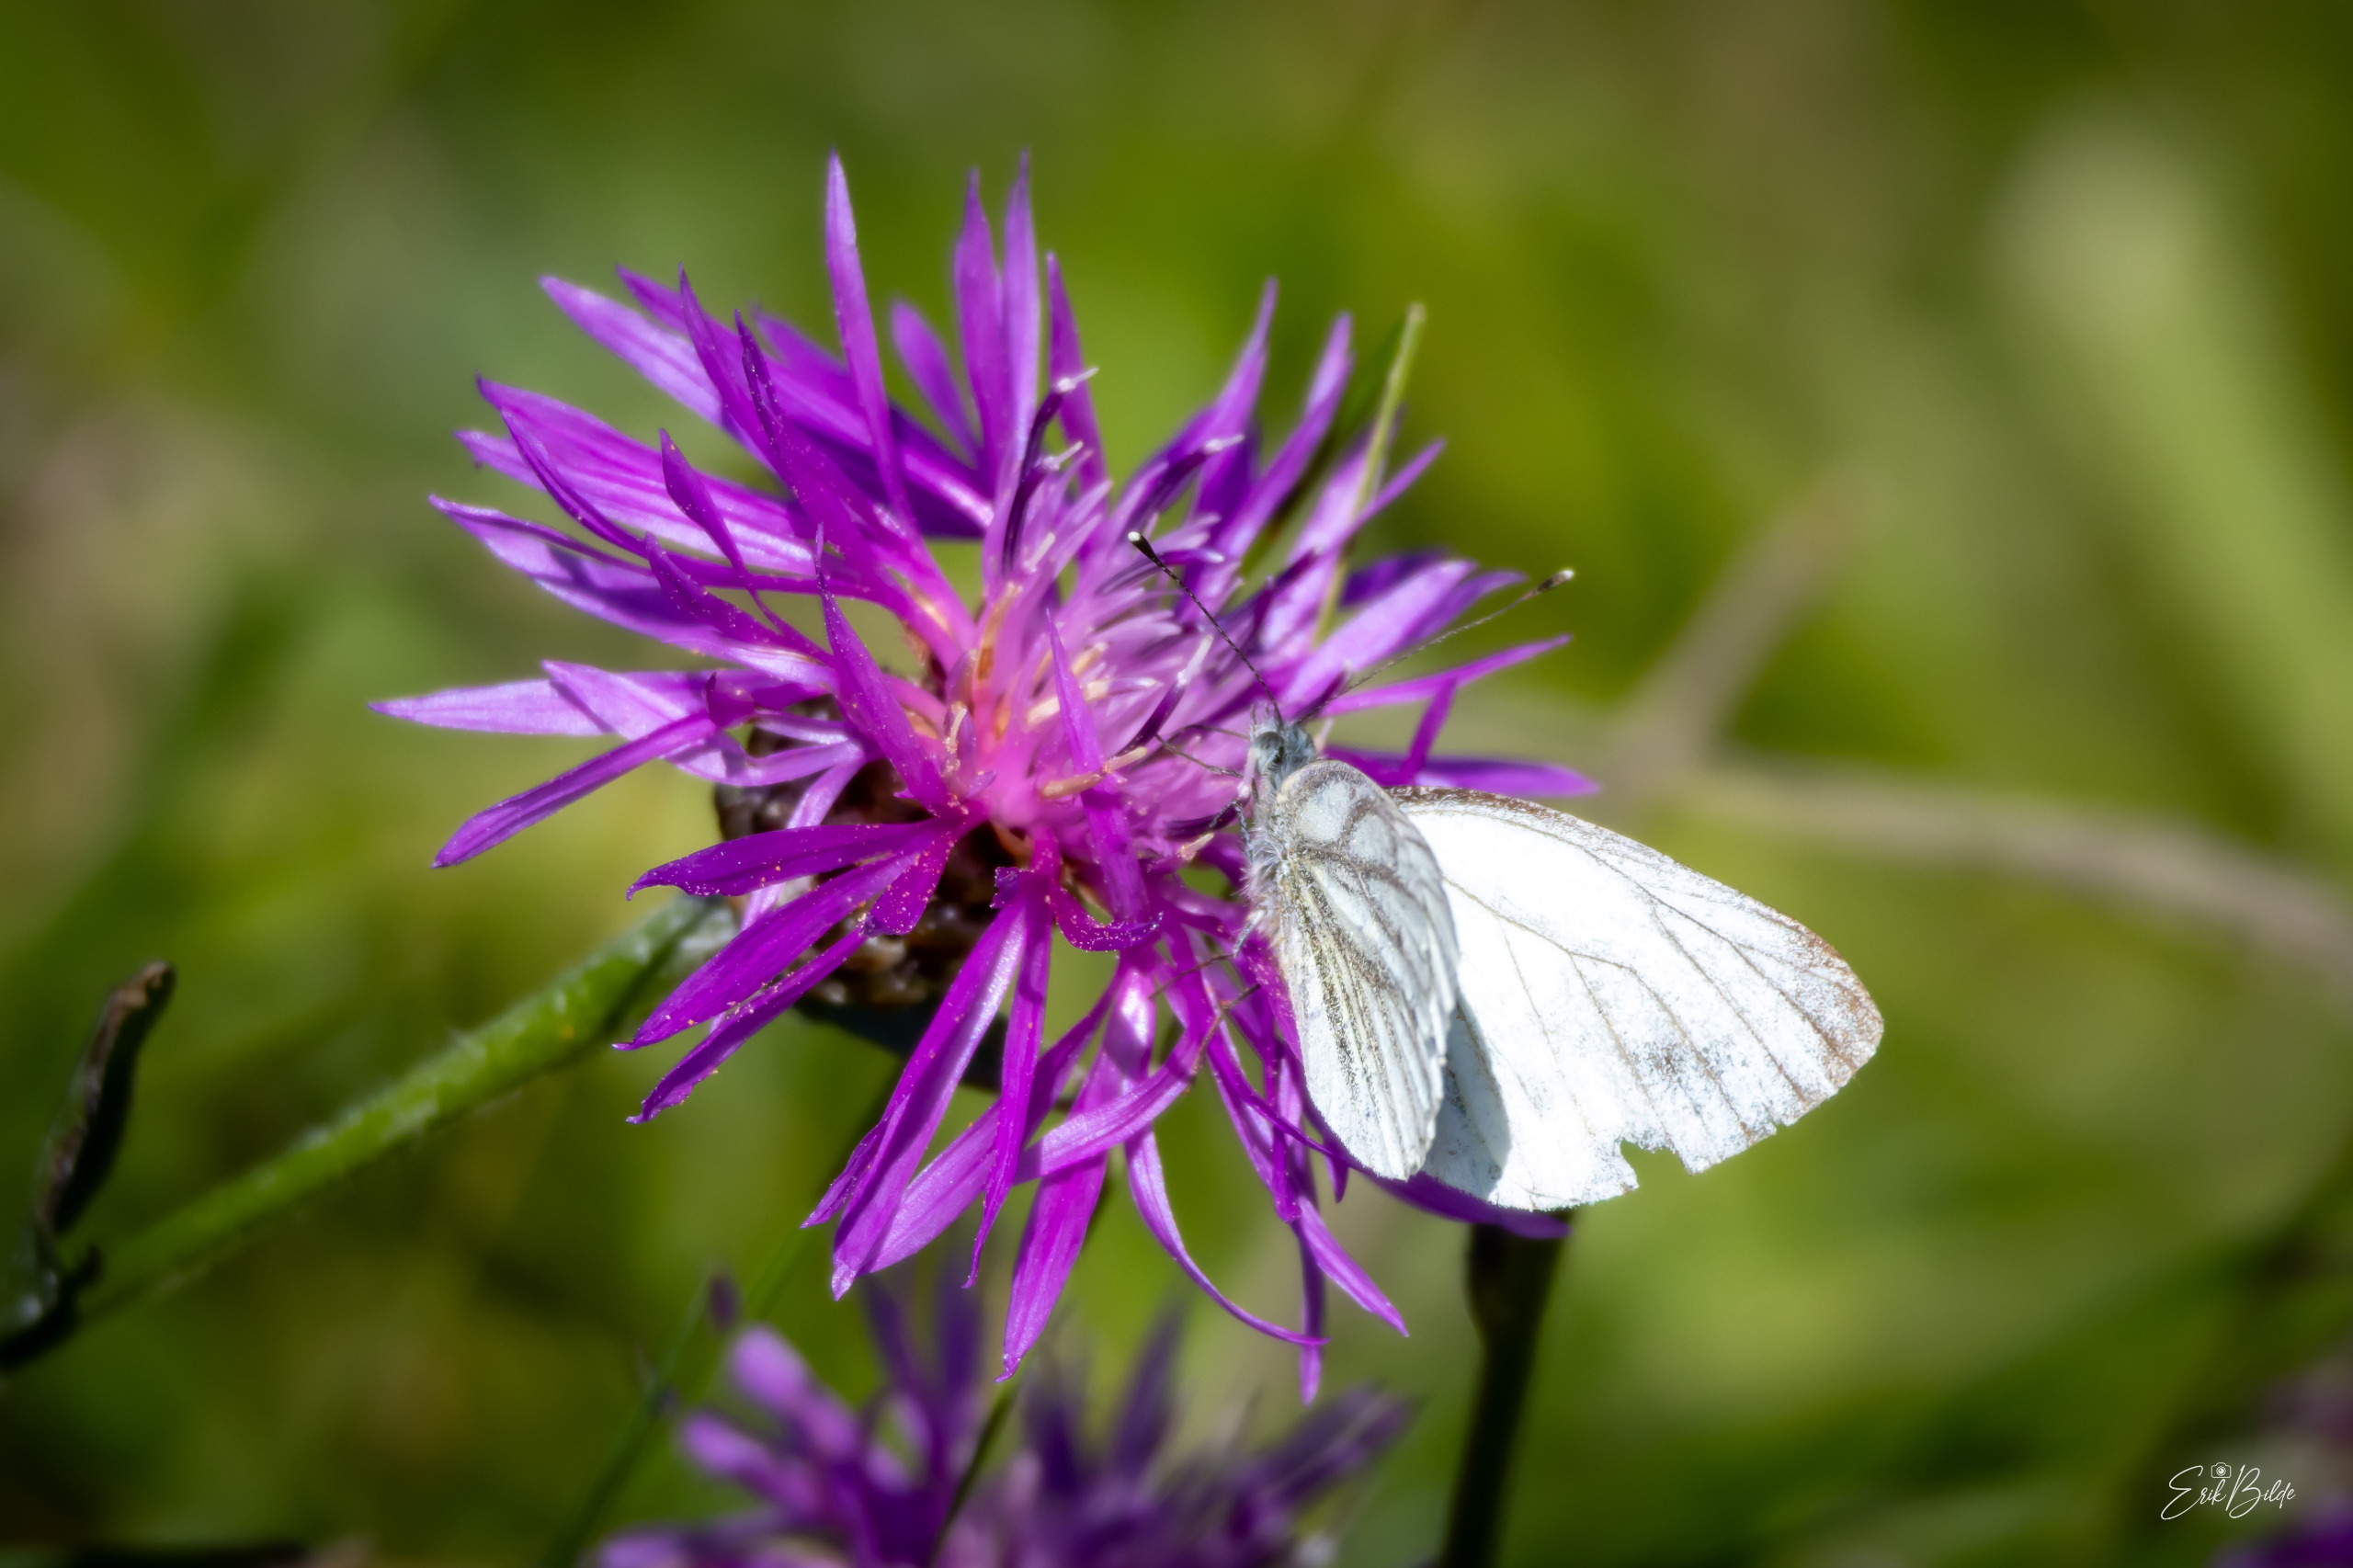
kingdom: Animalia
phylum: Arthropoda
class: Insecta
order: Lepidoptera
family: Pieridae
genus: Pieris
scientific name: Pieris napi
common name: Grønåret kålsommerfugl
